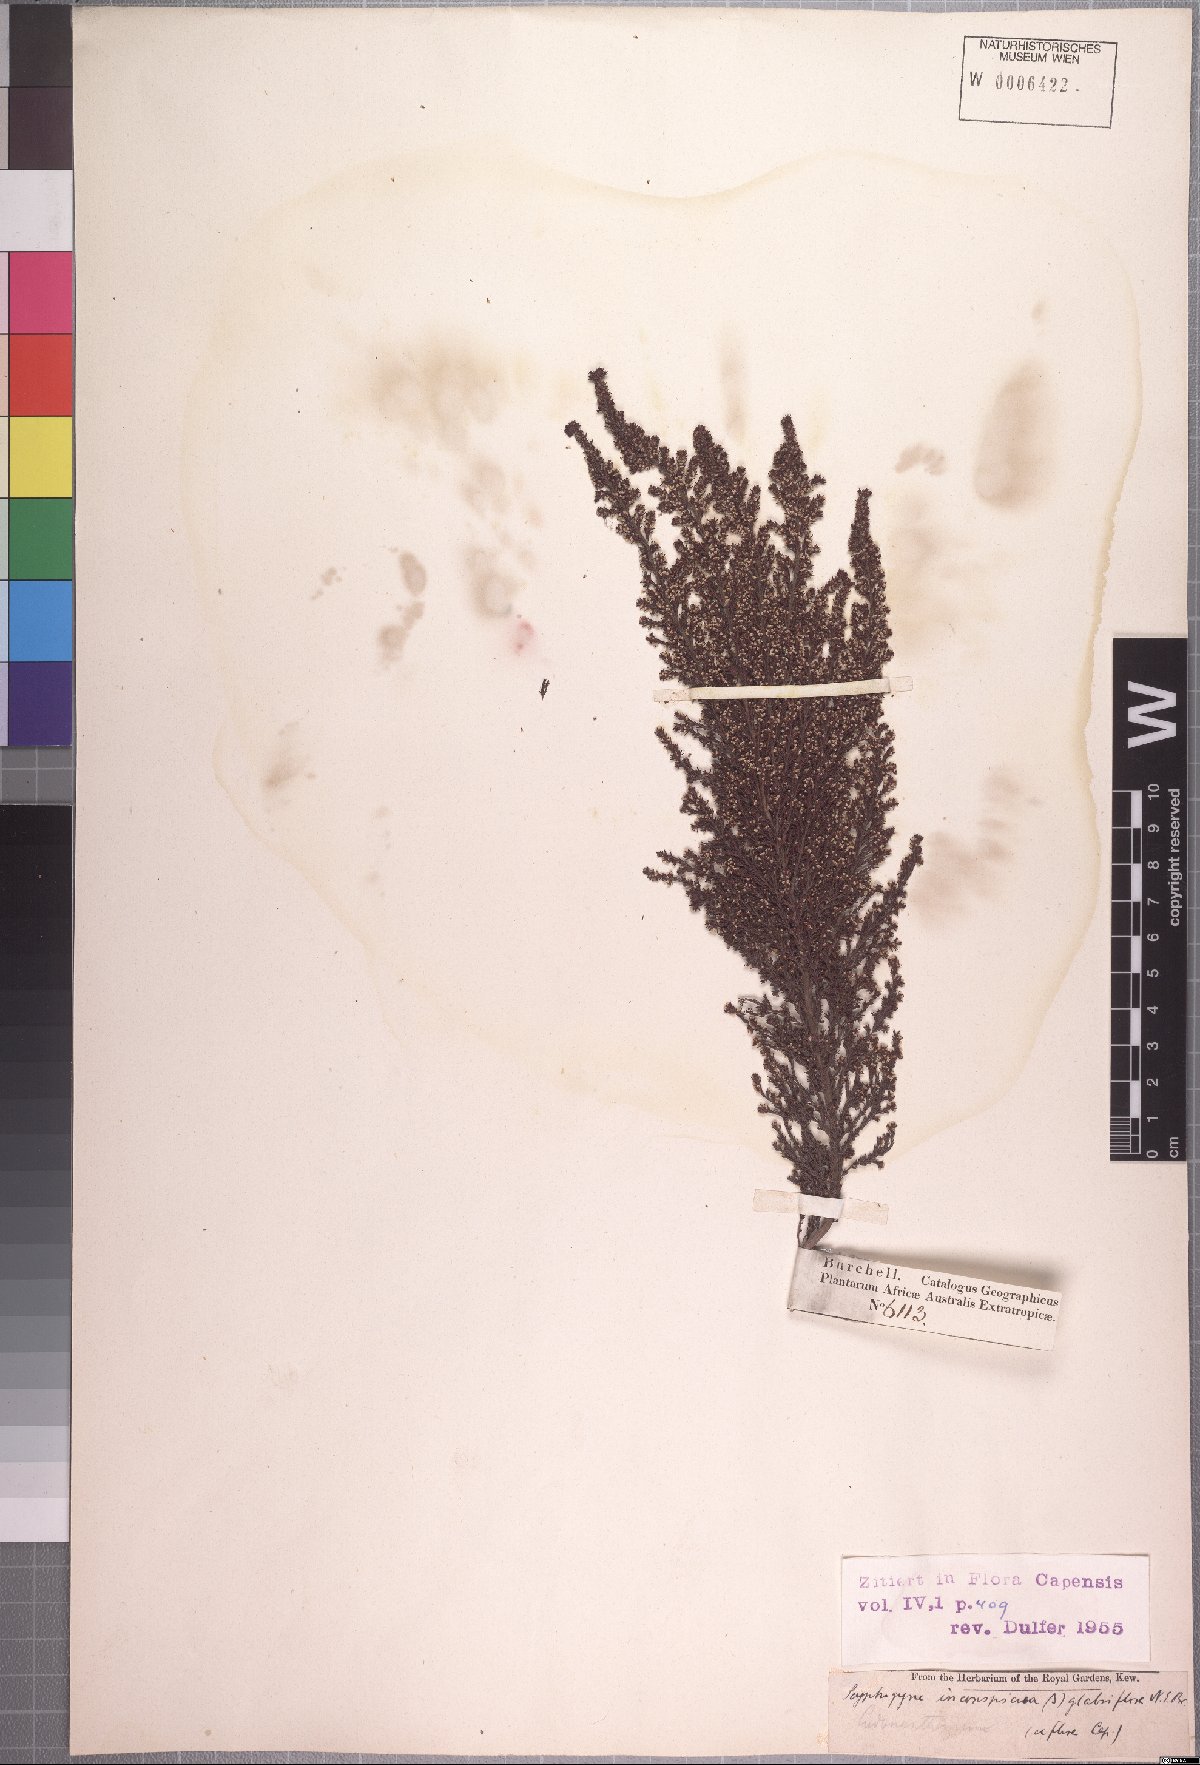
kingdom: Plantae
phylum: Tracheophyta
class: Magnoliopsida
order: Ericales
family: Ericaceae
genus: Erica
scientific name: Erica muscosa
